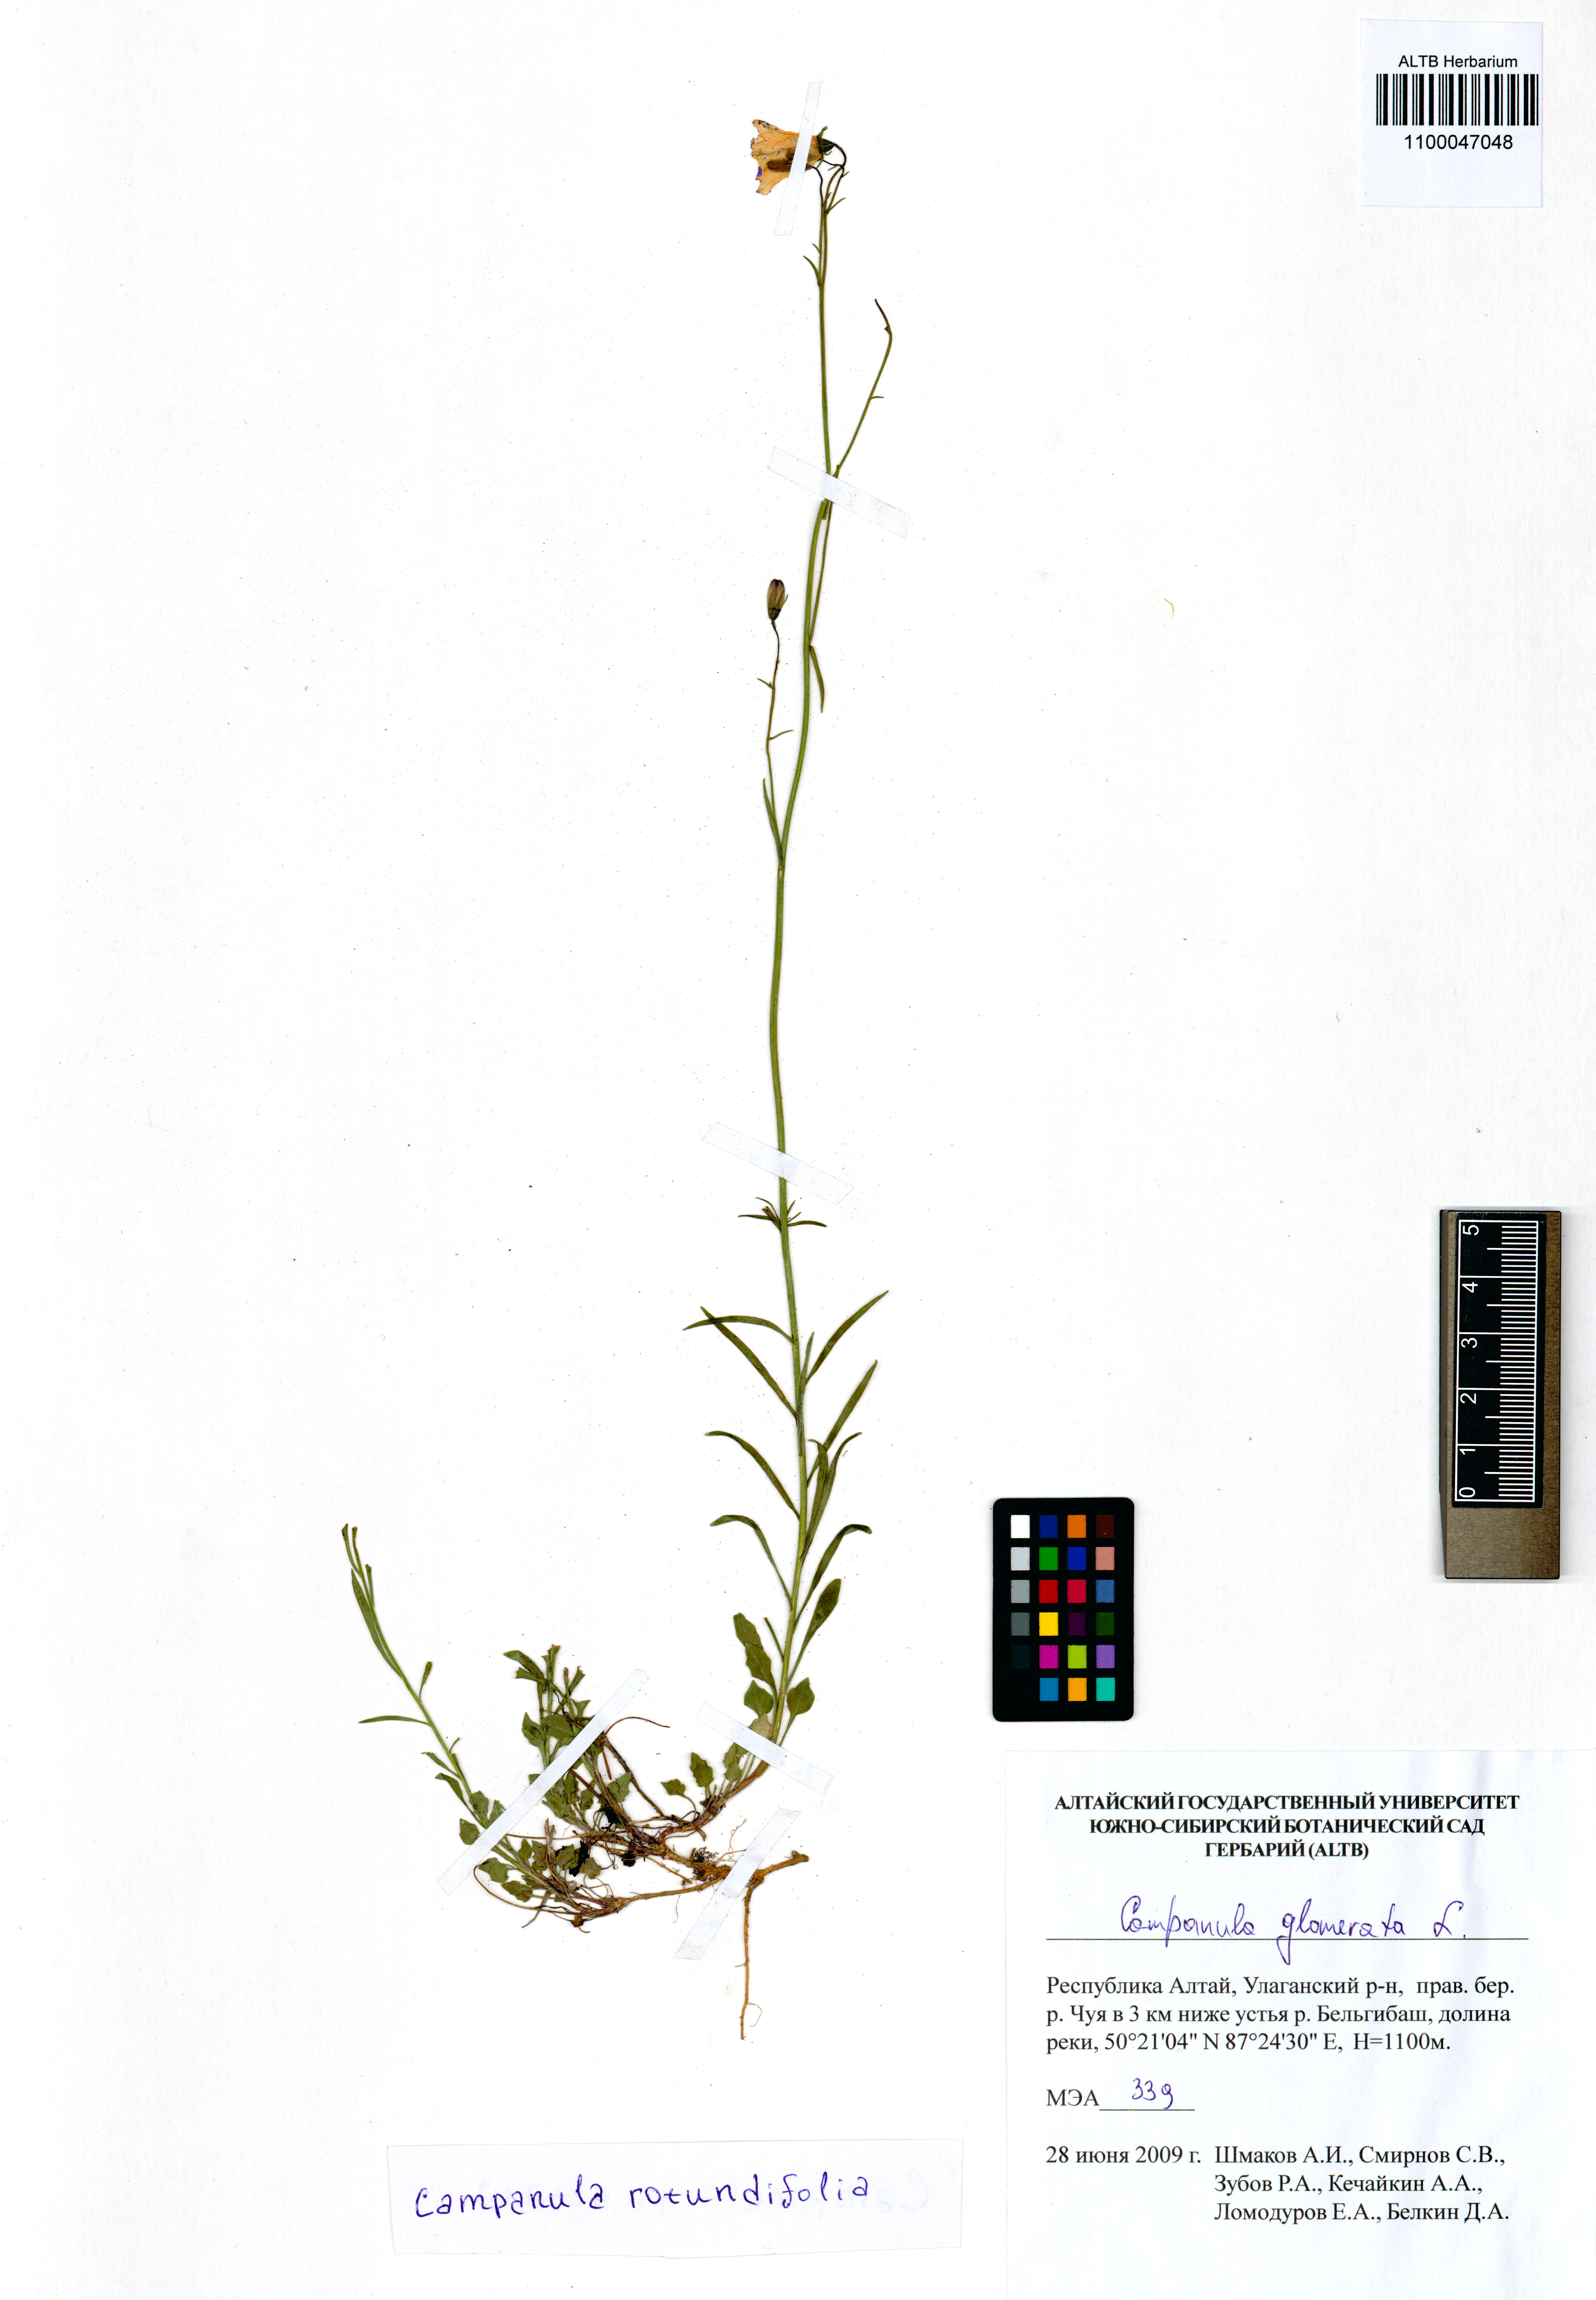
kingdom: Plantae
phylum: Tracheophyta
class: Magnoliopsida
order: Asterales
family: Campanulaceae
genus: Campanula
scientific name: Campanula rotundifolia
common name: Harebell
